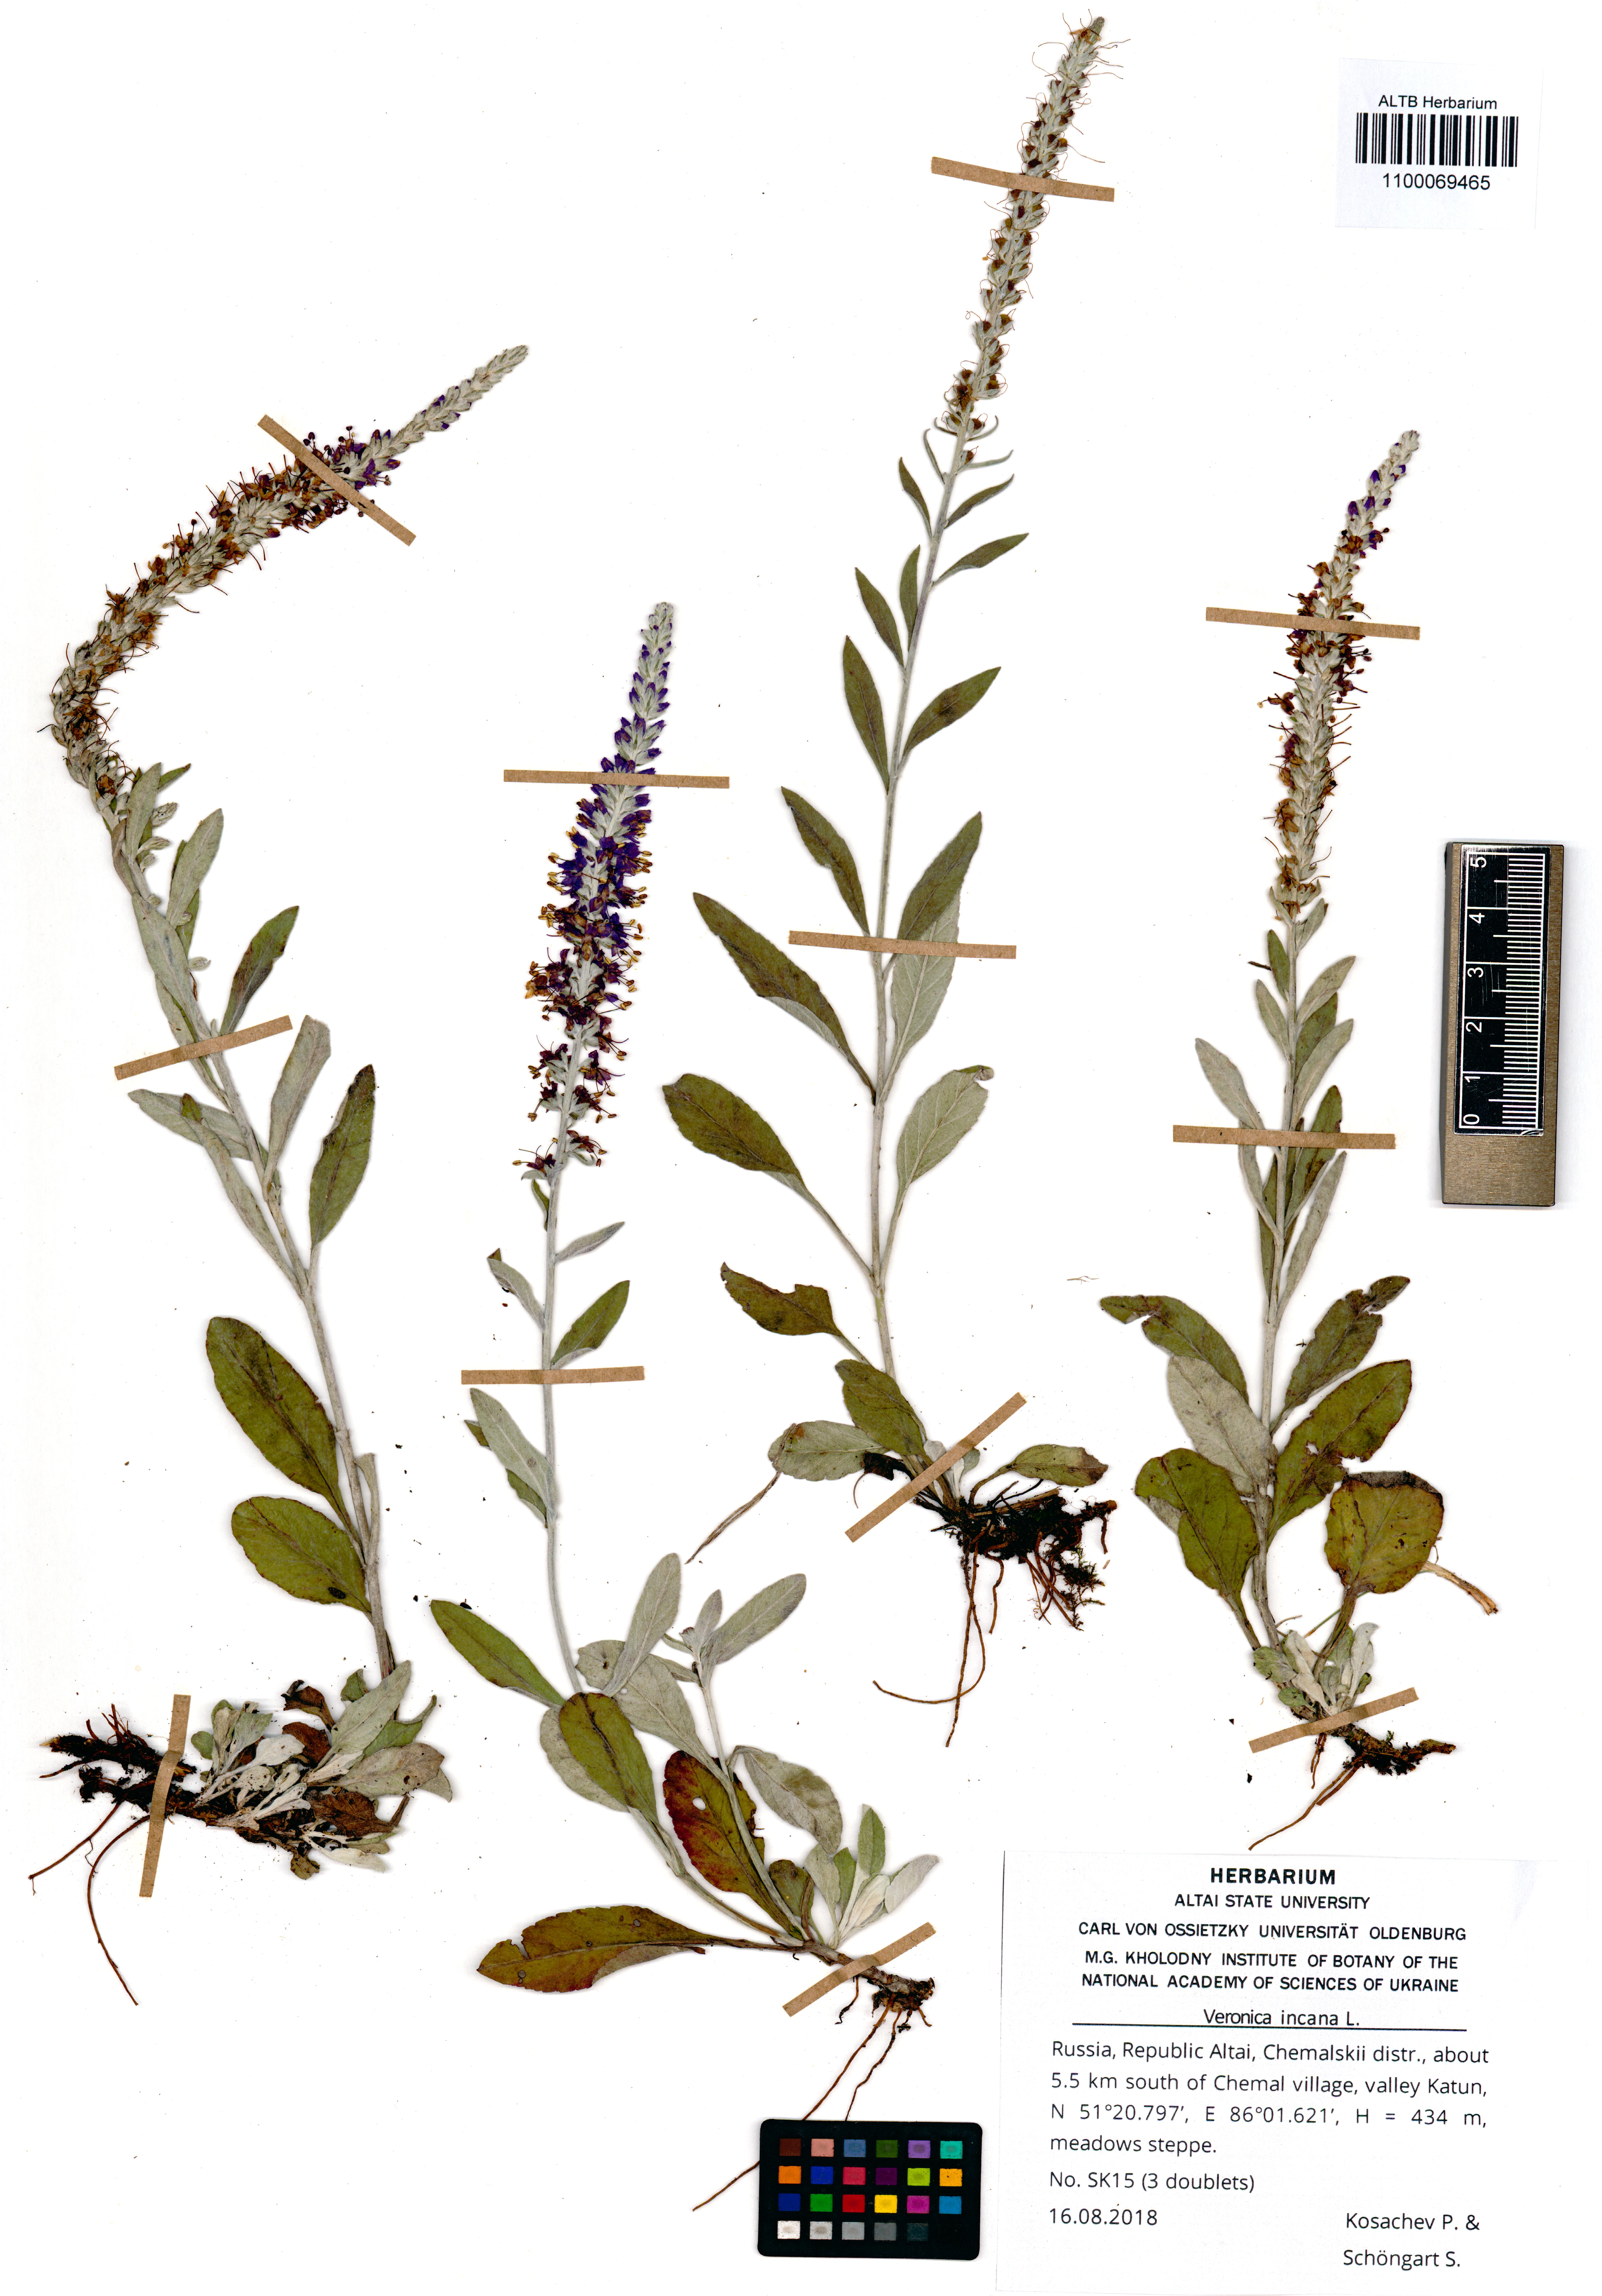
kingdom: Plantae
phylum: Tracheophyta
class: Magnoliopsida
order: Lamiales
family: Plantaginaceae
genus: Veronica
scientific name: Veronica incana
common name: Silver speedwell
